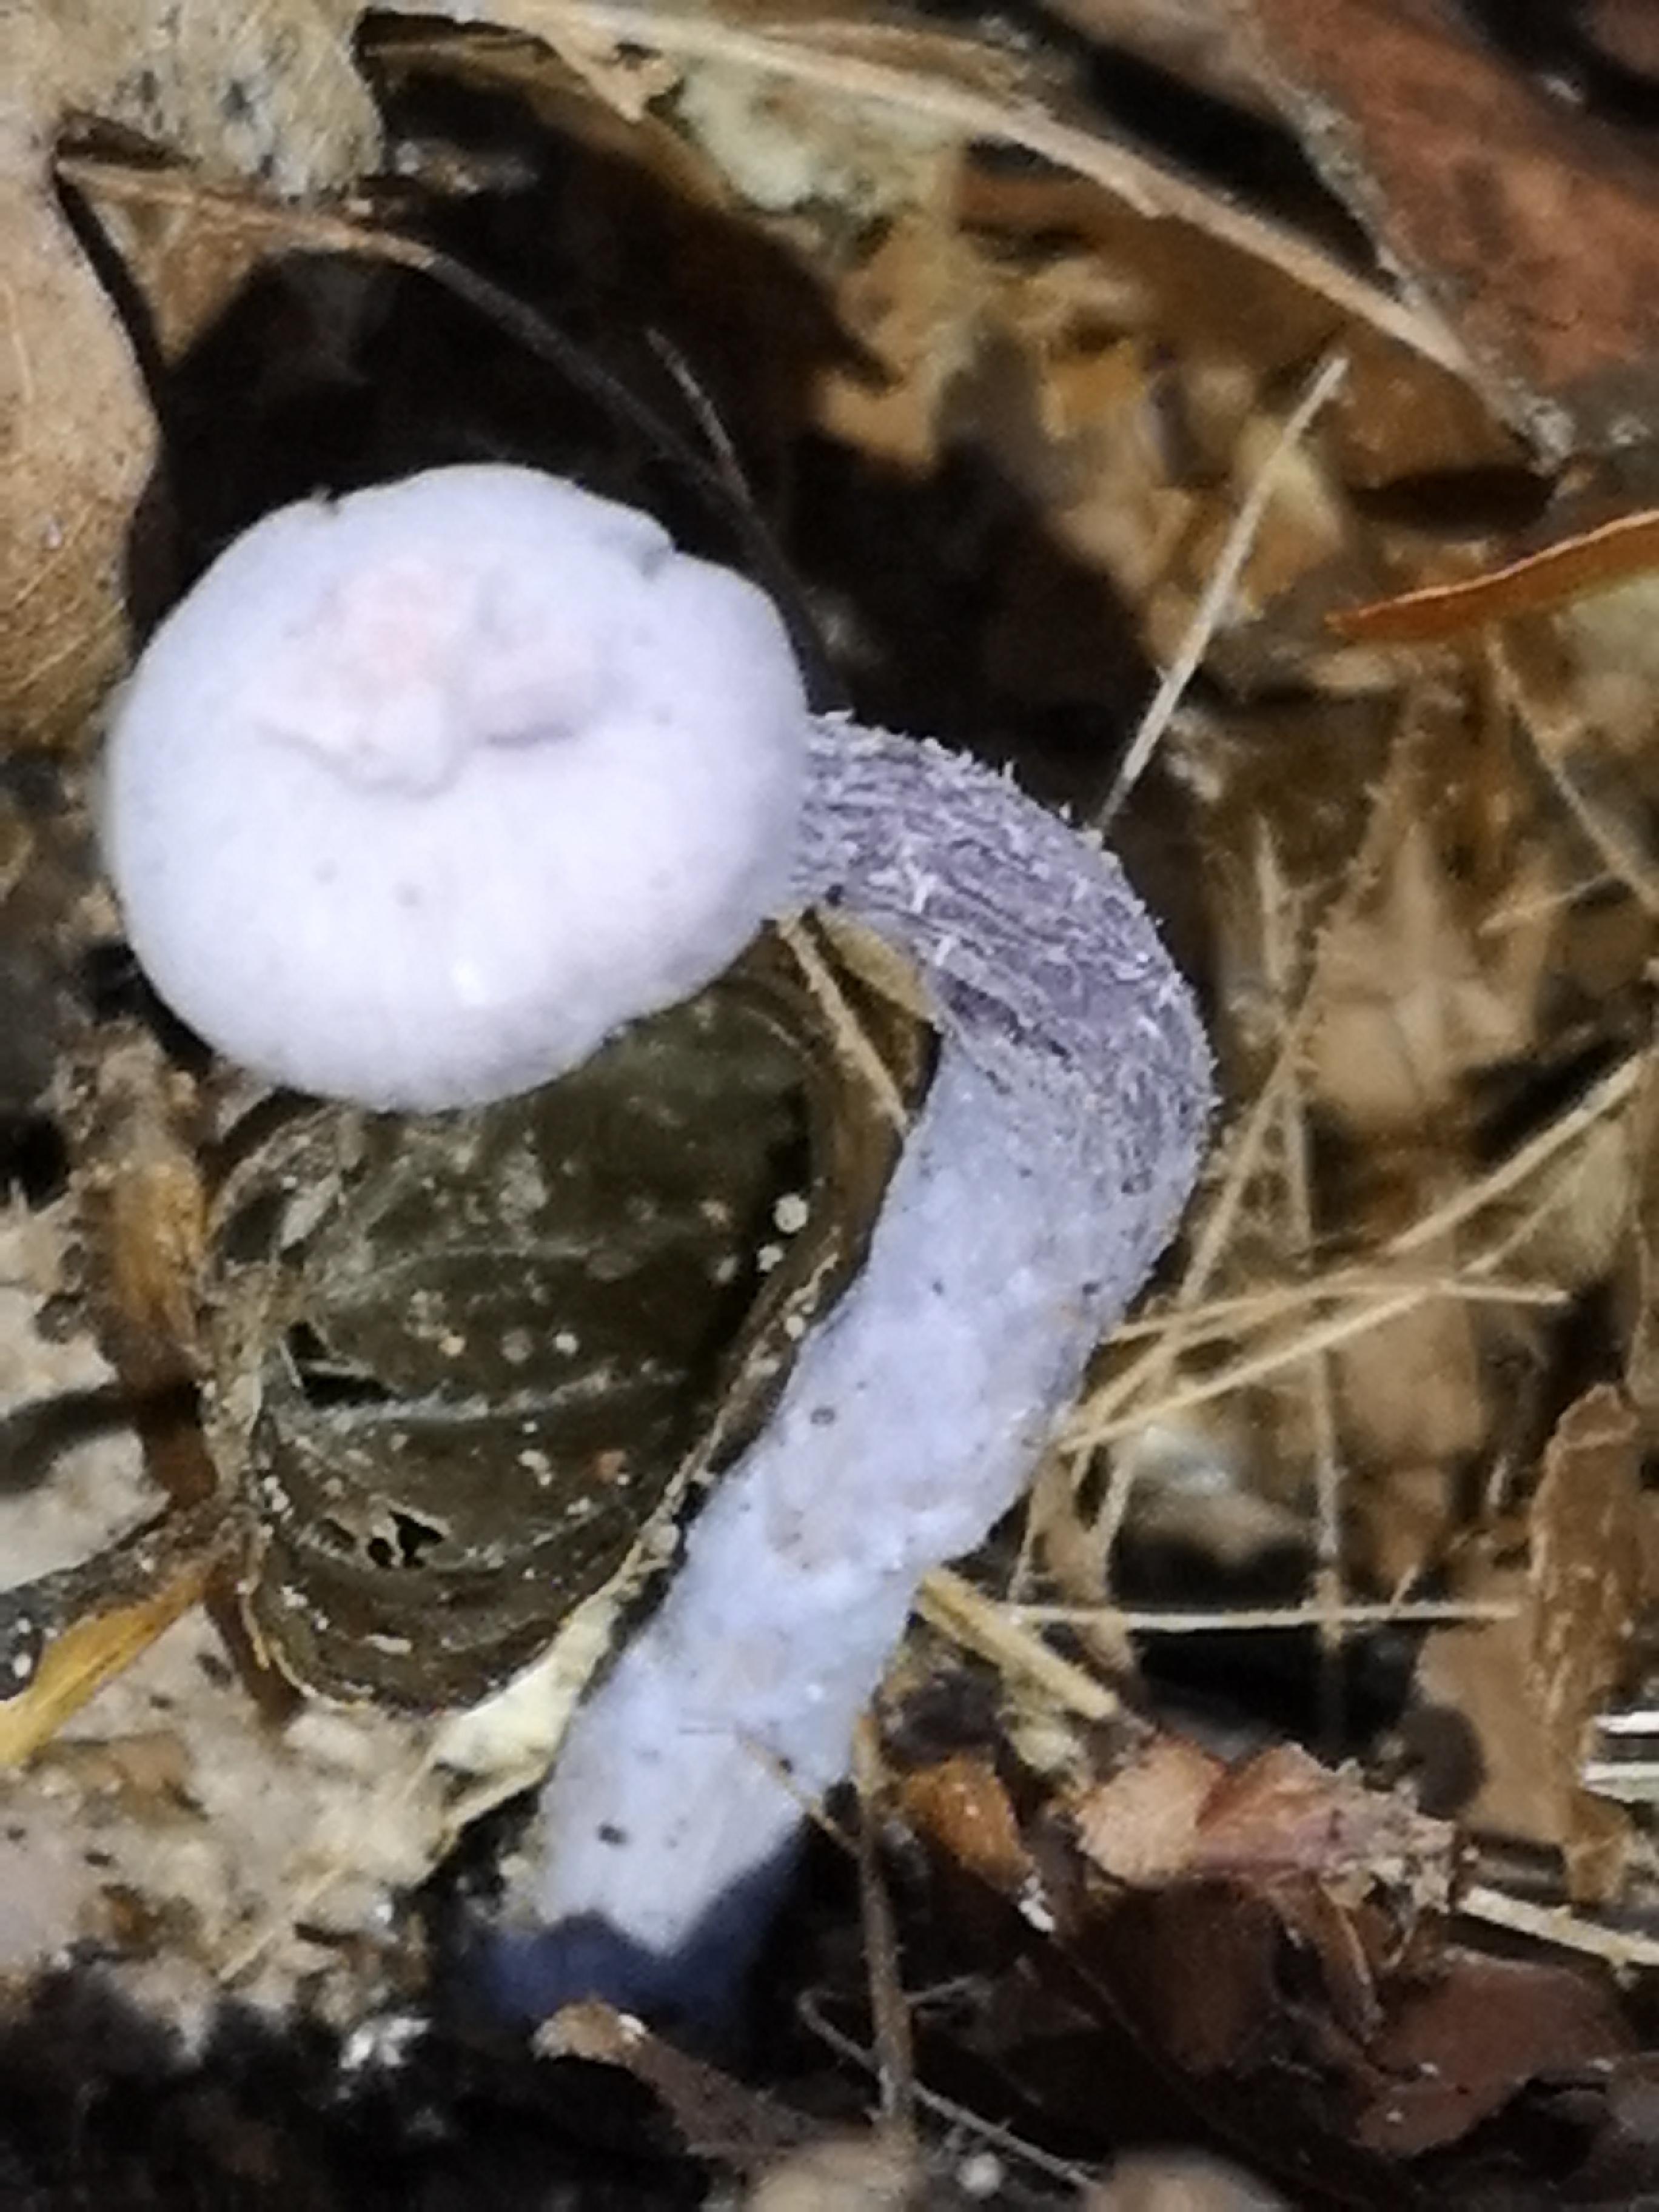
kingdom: Fungi
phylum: Basidiomycota
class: Agaricomycetes
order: Agaricales
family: Hydnangiaceae
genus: Laccaria
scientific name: Laccaria amethystina
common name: violet ametysthat
